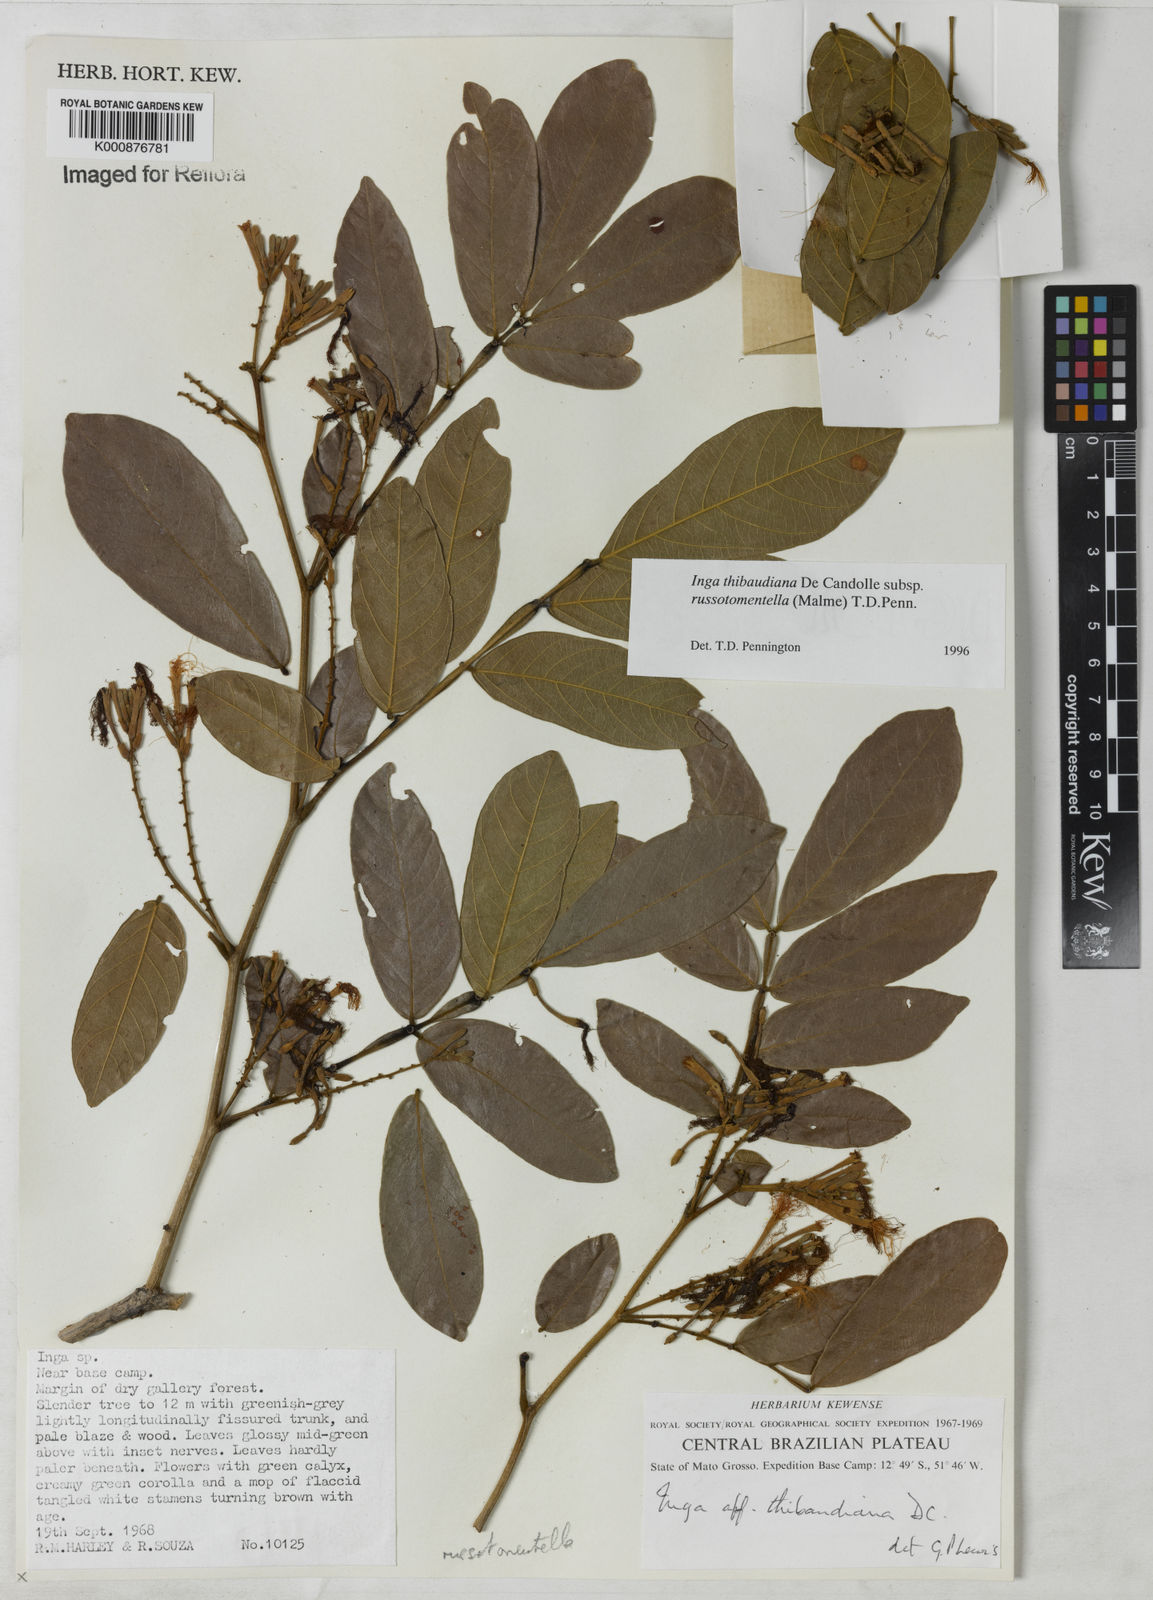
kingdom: Plantae
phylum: Tracheophyta
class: Magnoliopsida
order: Fabales
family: Fabaceae
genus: Inga
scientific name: Inga thibaudiana
